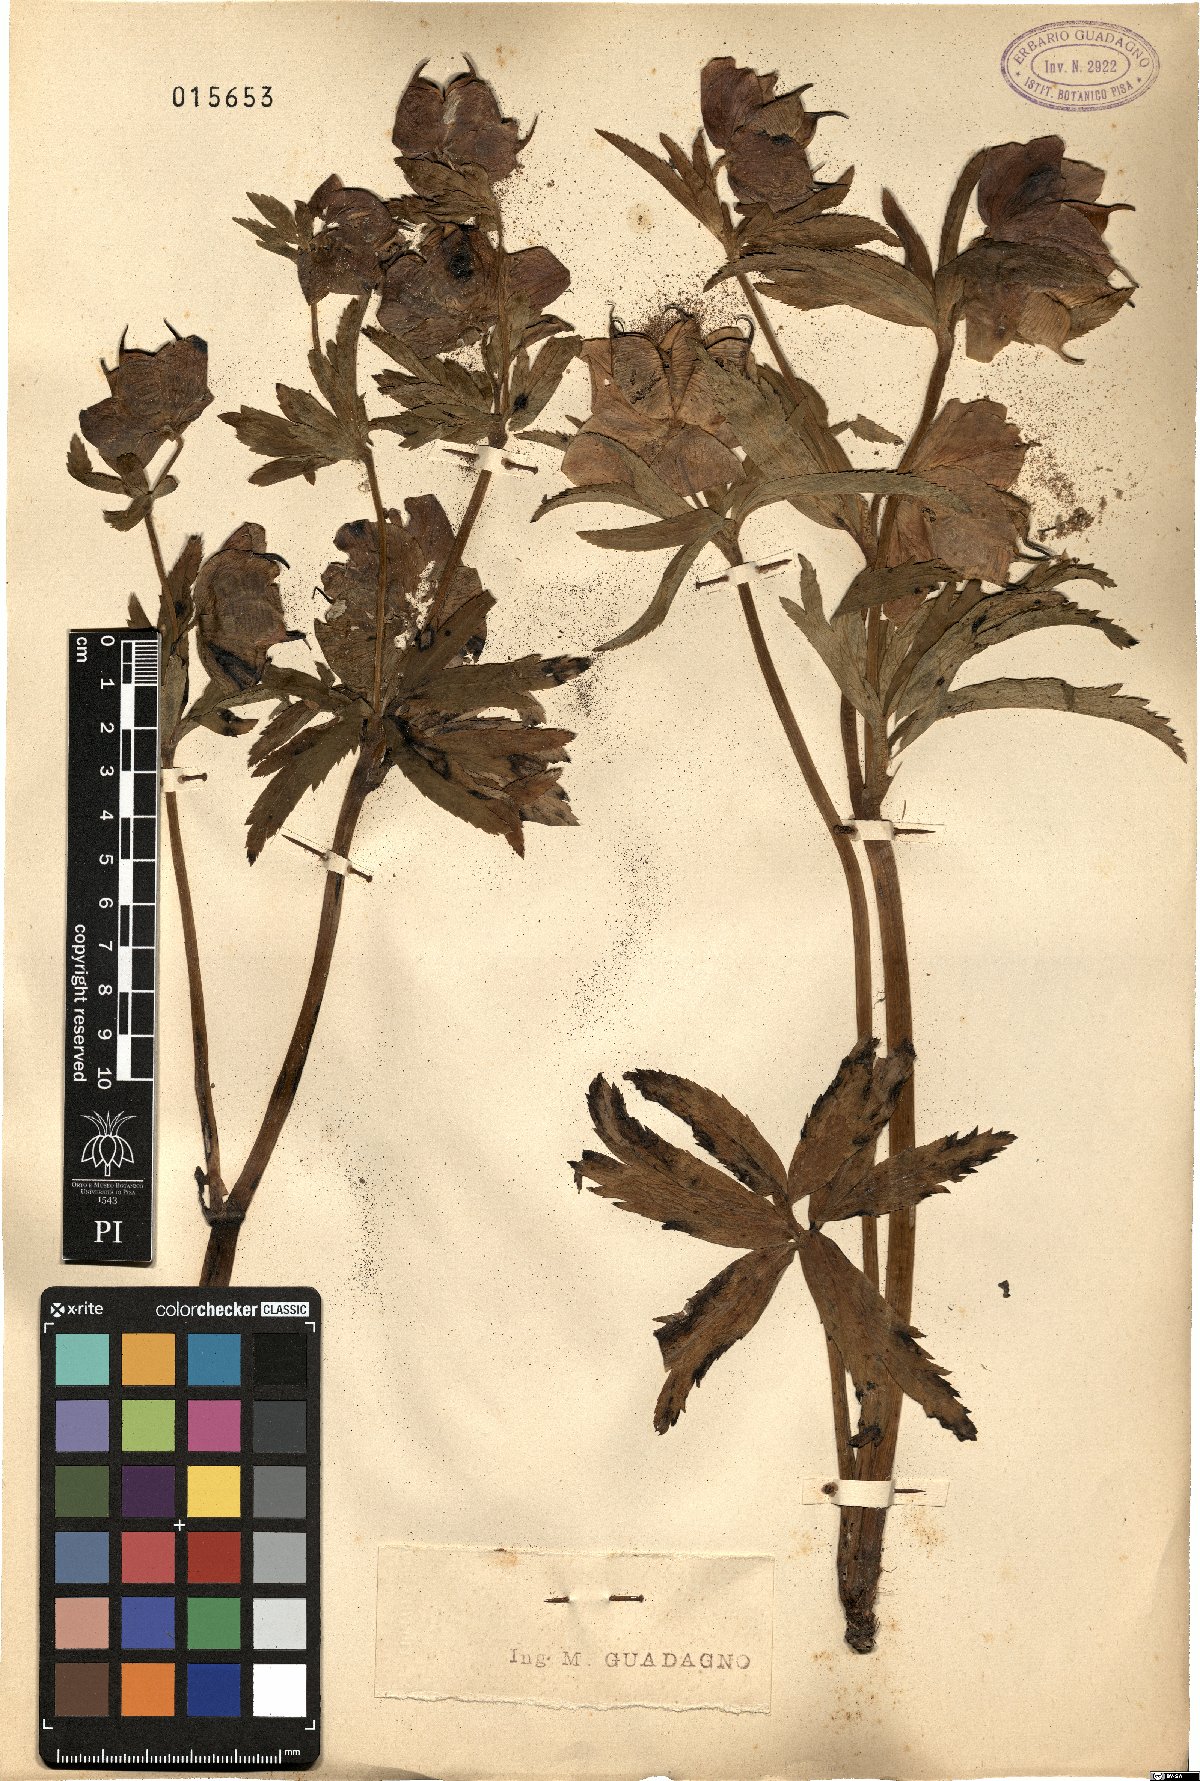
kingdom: Plantae
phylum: Tracheophyta
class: Magnoliopsida
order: Ranunculales
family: Ranunculaceae
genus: Helleborus
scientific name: Helleborus
